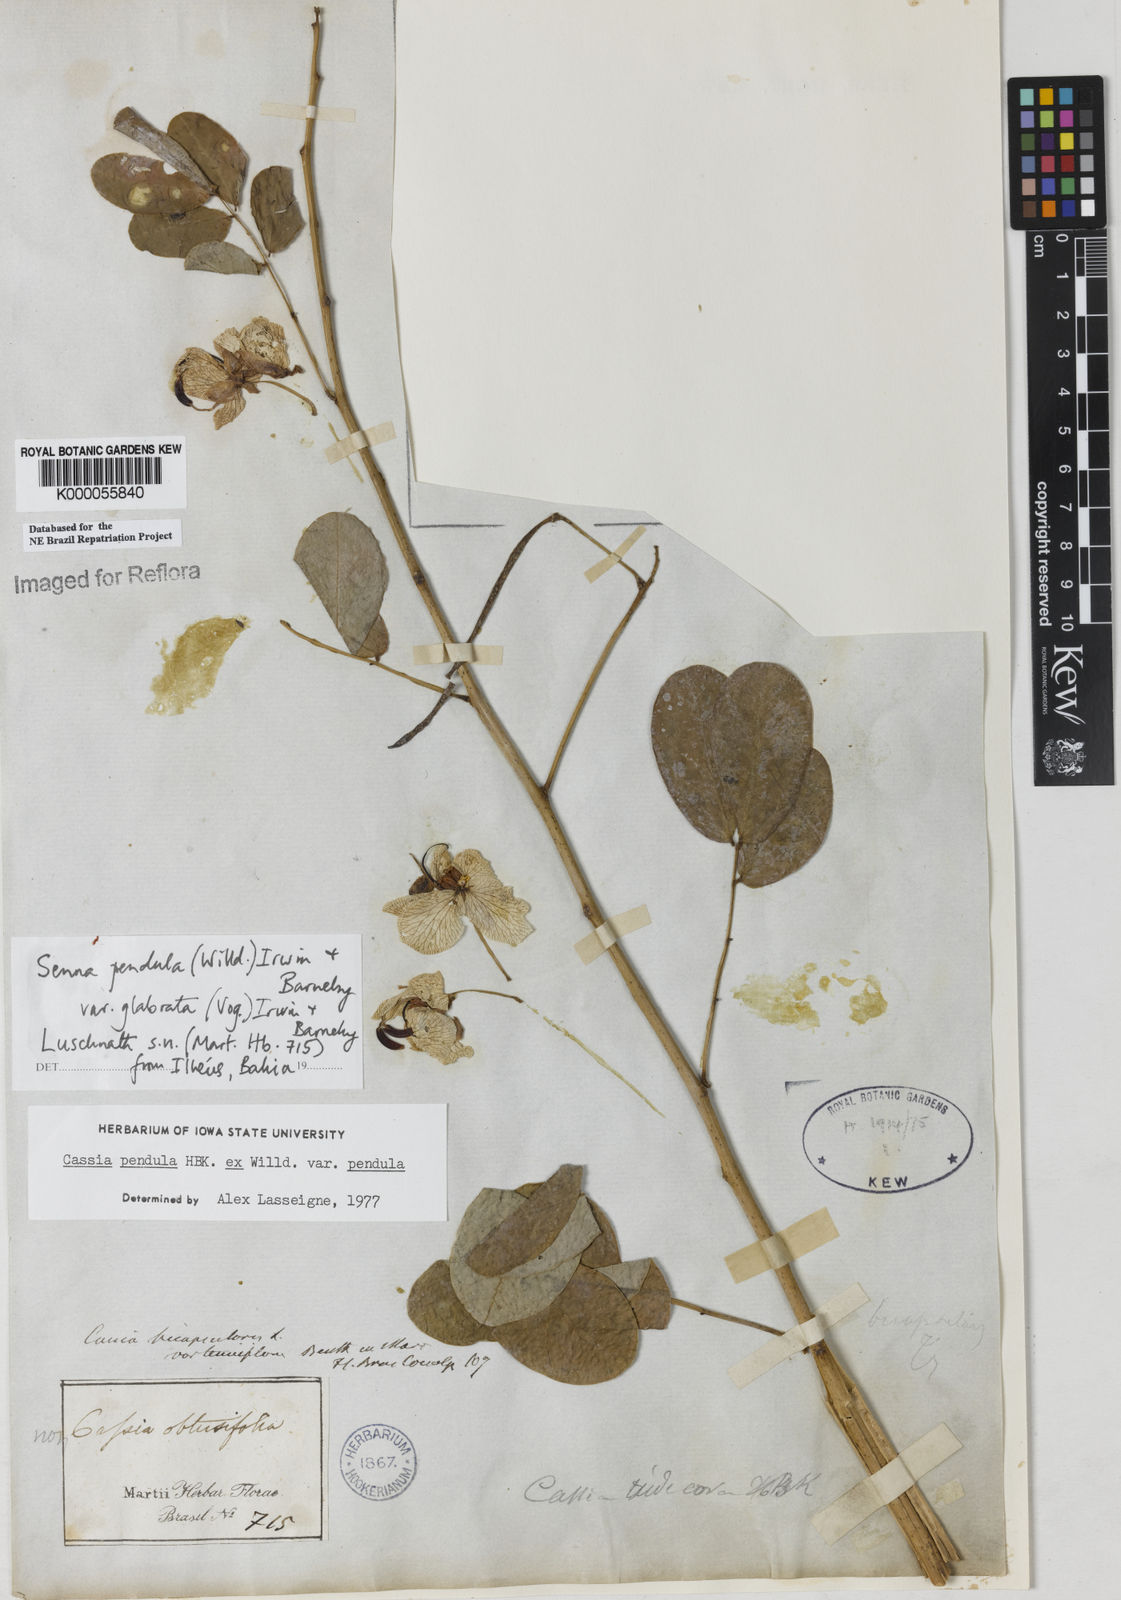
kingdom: Plantae
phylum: Tracheophyta
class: Magnoliopsida
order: Fabales
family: Fabaceae
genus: Senna
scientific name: Senna pendula
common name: Easter cassia
